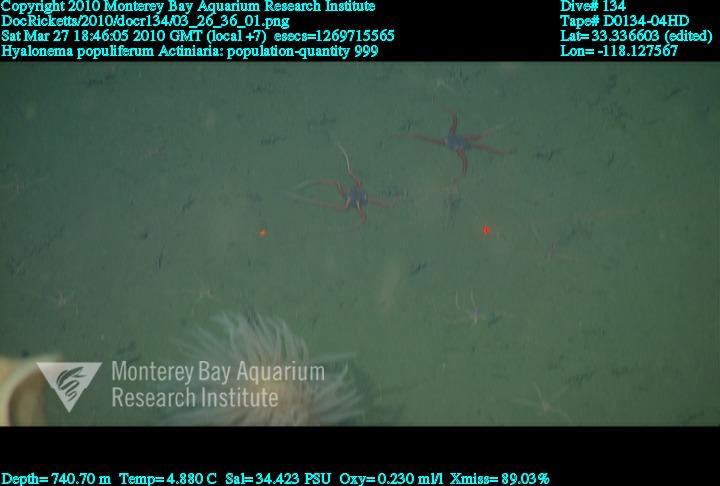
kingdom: Animalia
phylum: Porifera
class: Hexactinellida
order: Amphidiscosida
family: Hyalonematidae
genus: Hyalonema
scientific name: Hyalonema populiferum
